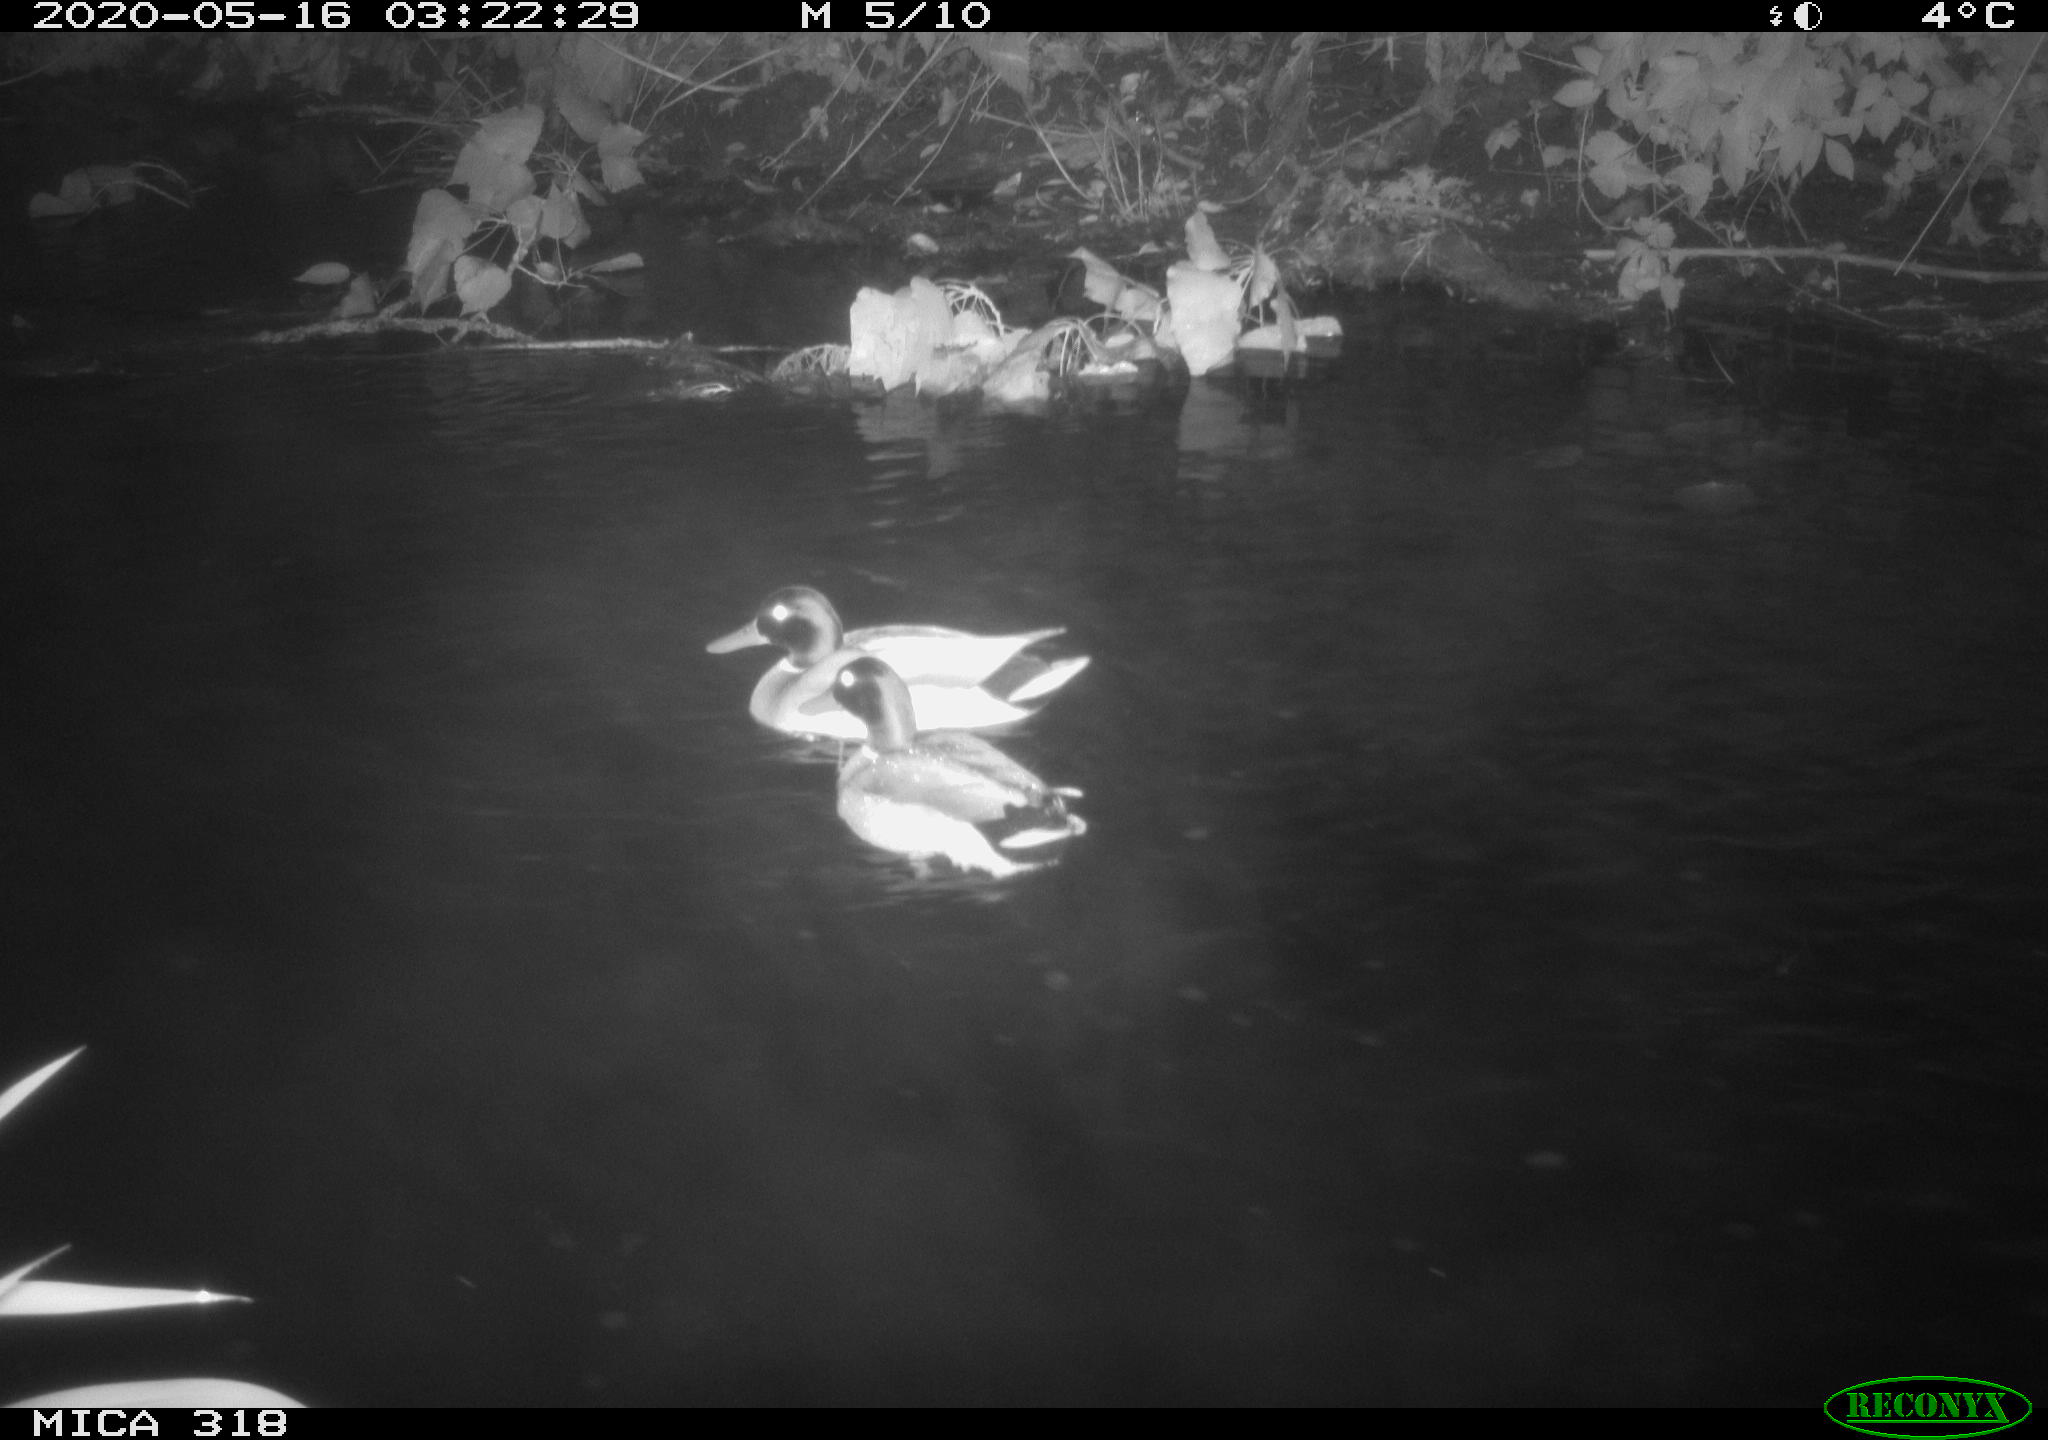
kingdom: Animalia
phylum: Chordata
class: Aves
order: Anseriformes
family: Anatidae
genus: Anas
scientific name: Anas platyrhynchos
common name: Mallard
